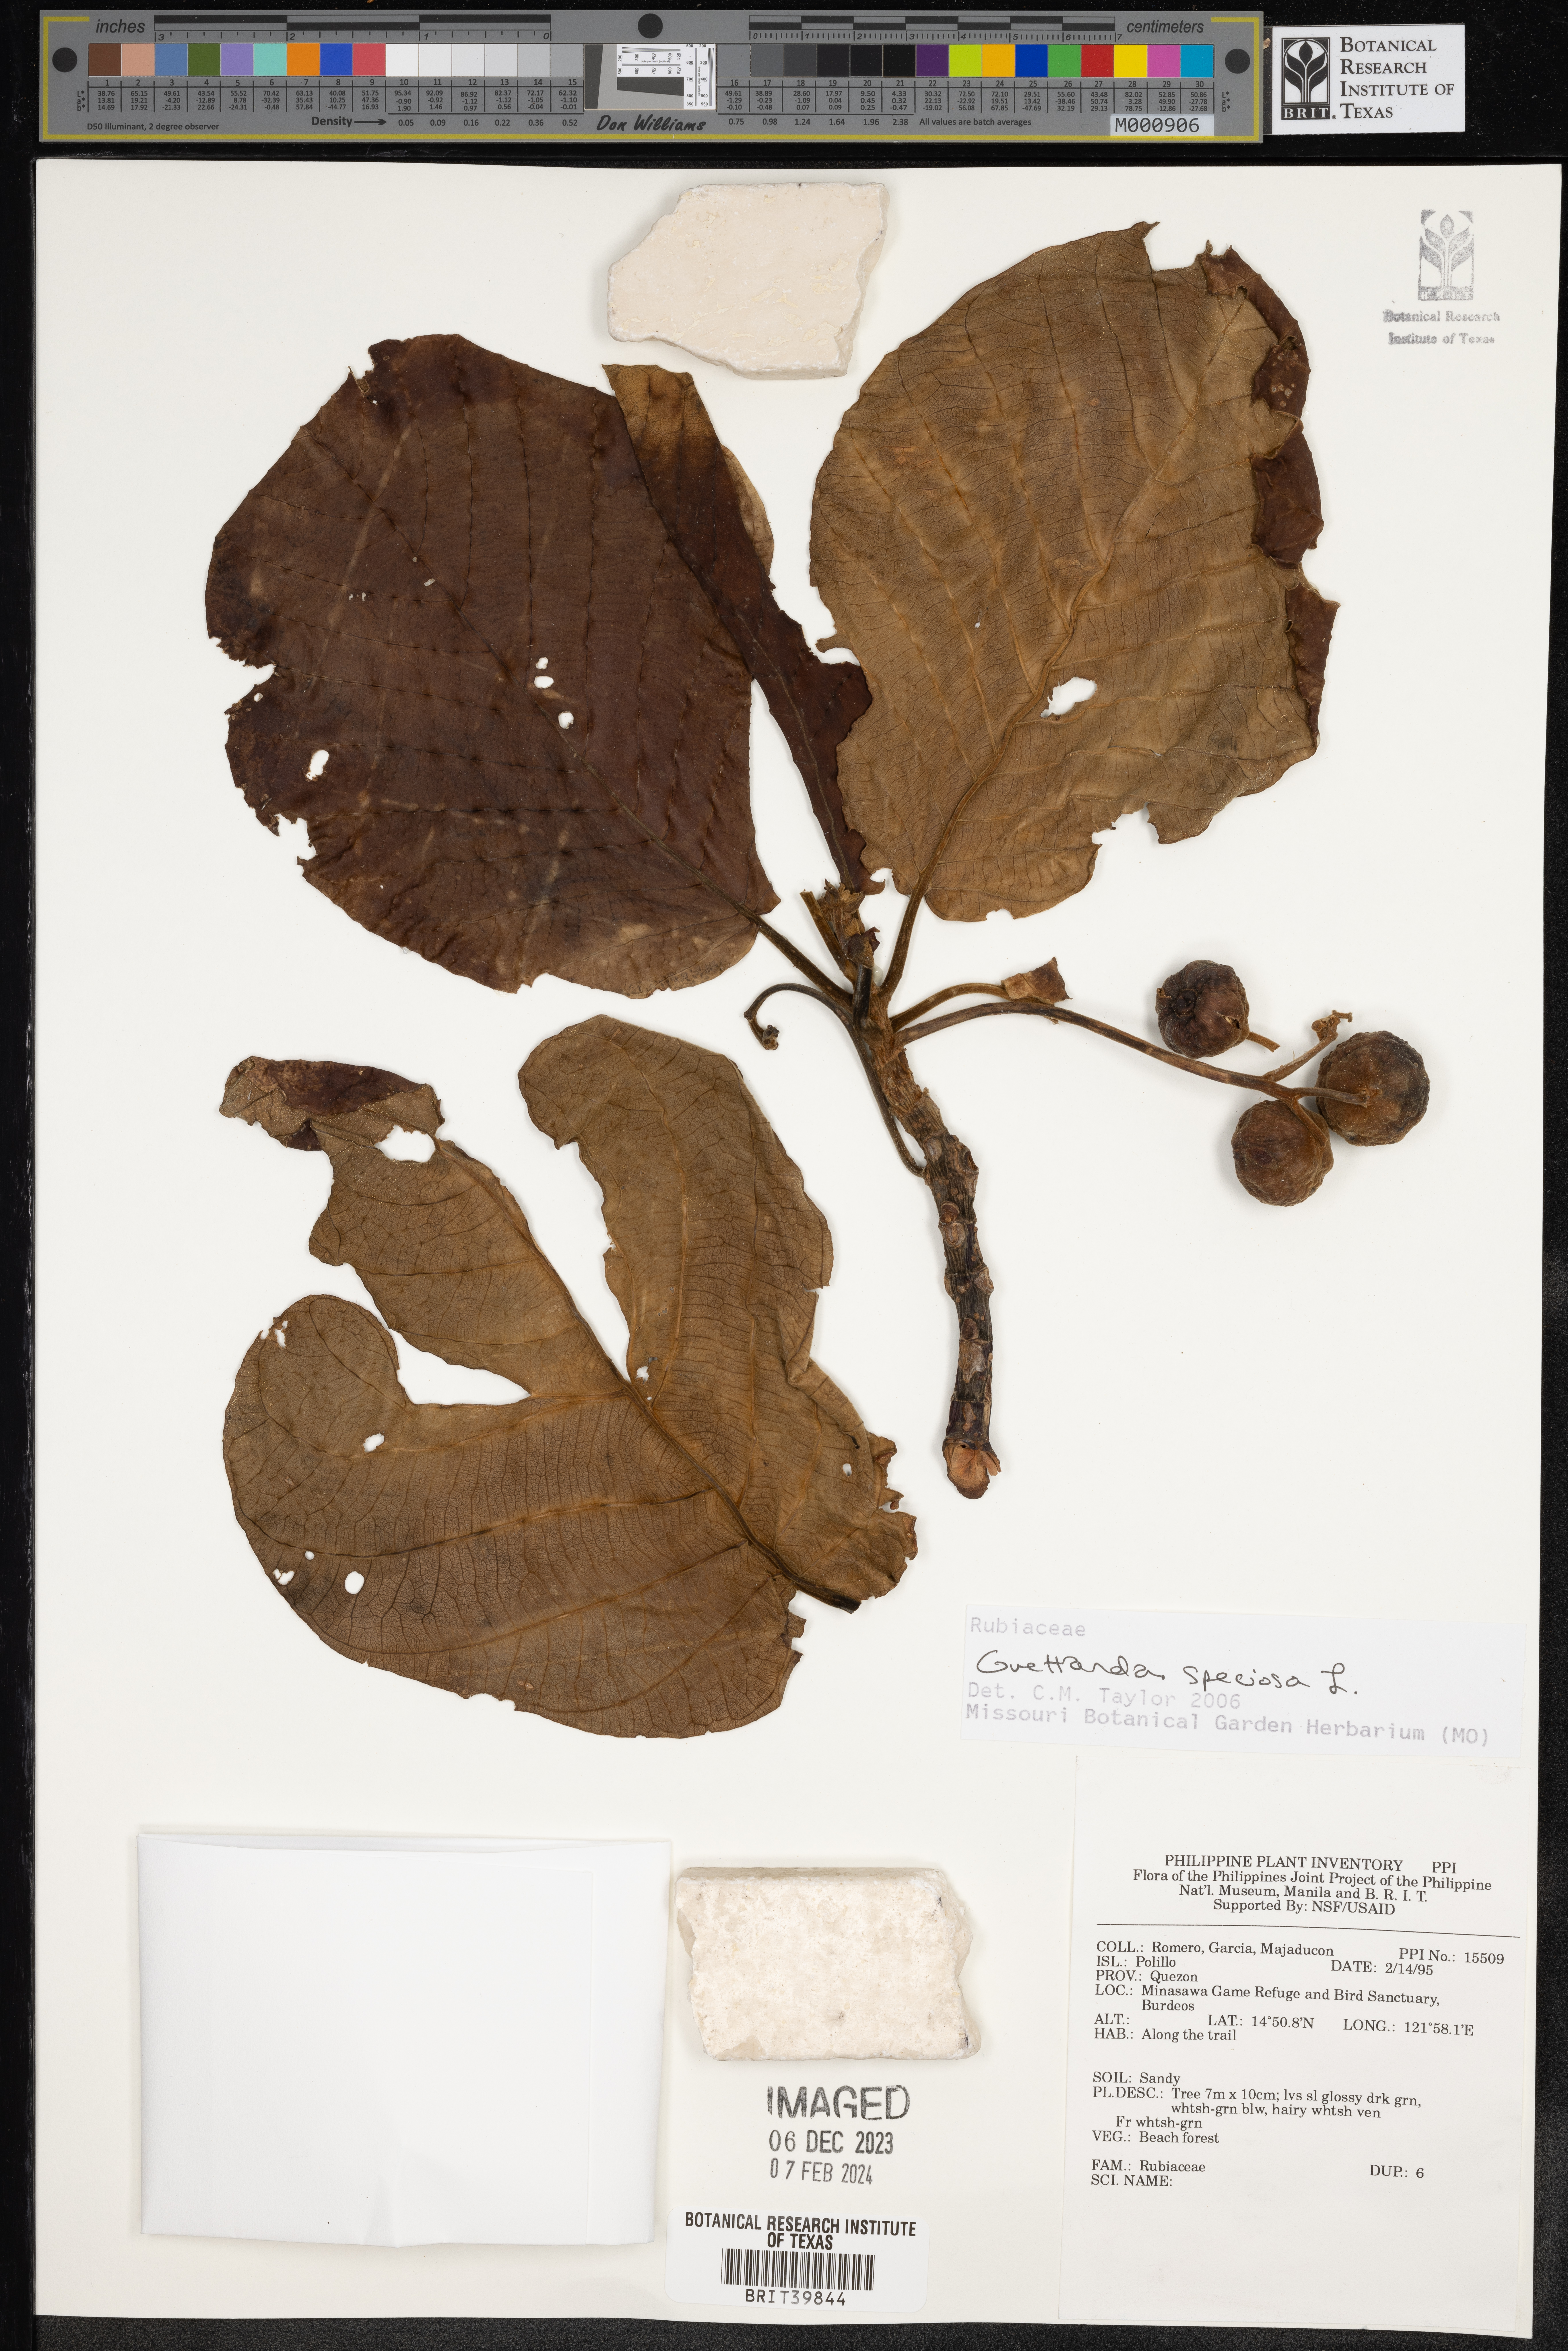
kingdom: Plantae
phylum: Tracheophyta
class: Magnoliopsida
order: Gentianales
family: Rubiaceae
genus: Guettarda
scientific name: Guettarda speciosa
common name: Sea randa
